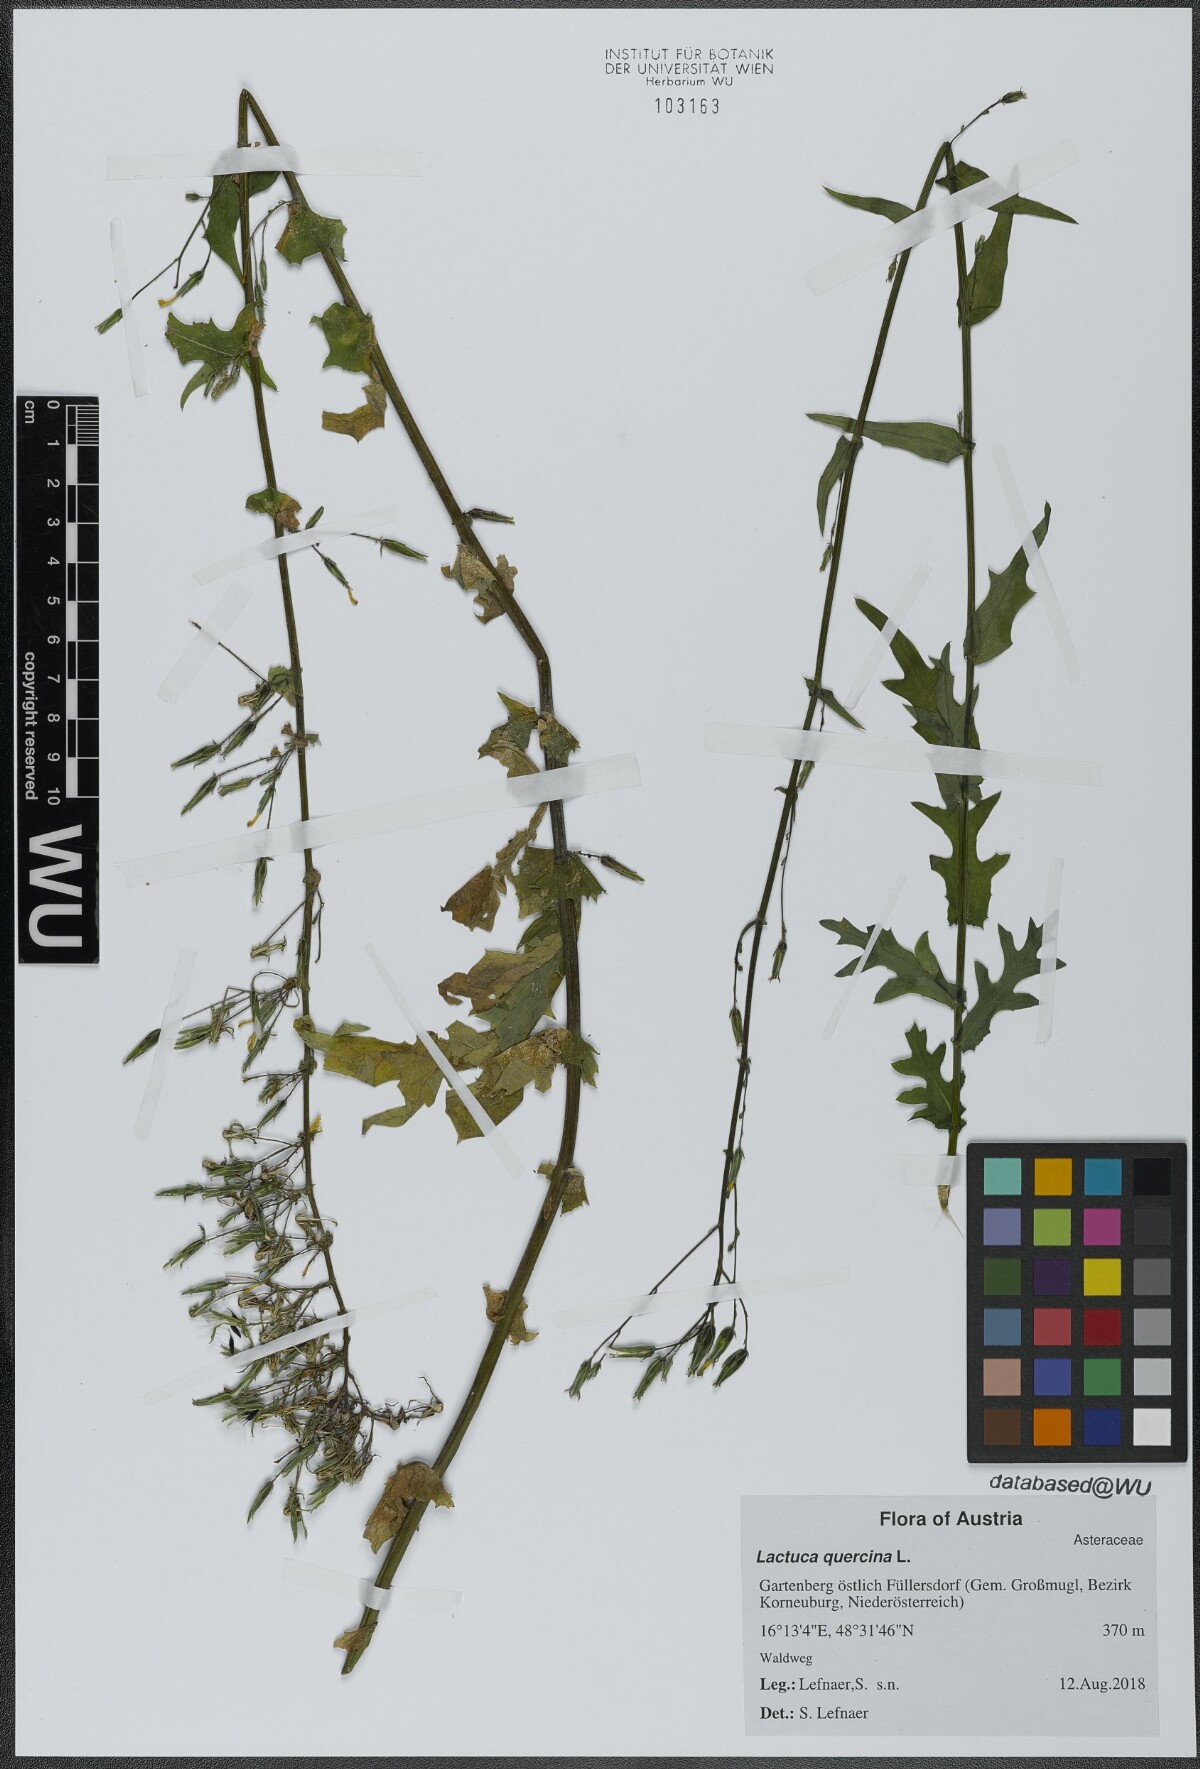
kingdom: Plantae
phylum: Tracheophyta
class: Magnoliopsida
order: Asterales
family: Asteraceae
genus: Lactuca
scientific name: Lactuca quercina
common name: Wild lettuce
